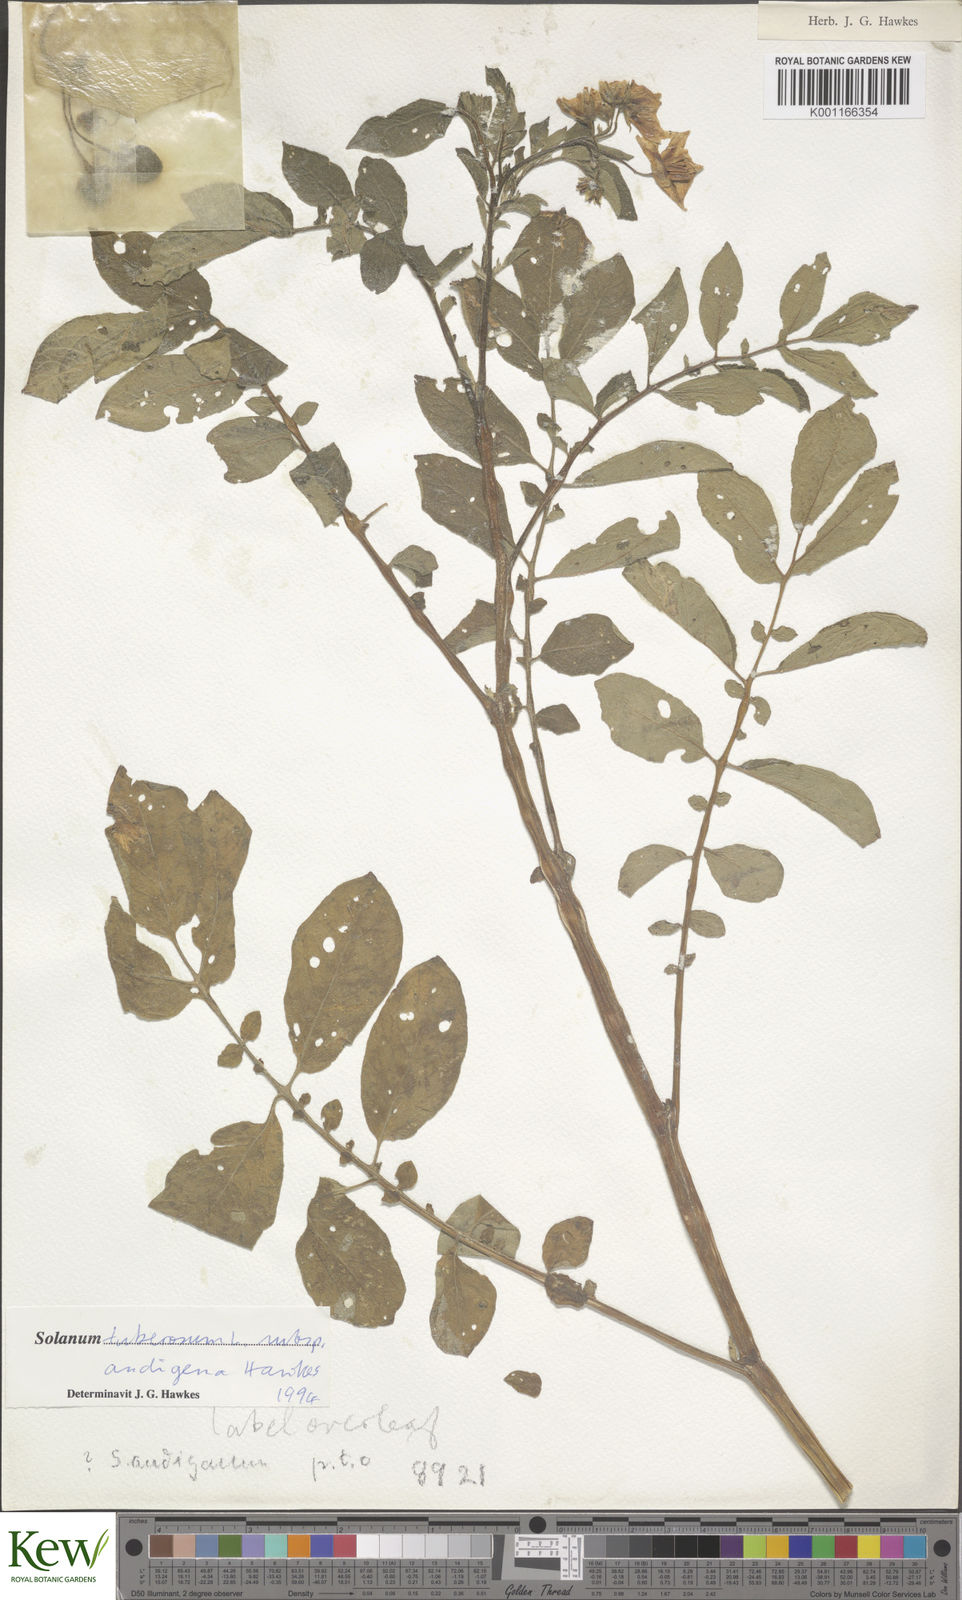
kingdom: Plantae
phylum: Tracheophyta
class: Magnoliopsida
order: Solanales
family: Solanaceae
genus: Solanum
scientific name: Solanum tuberosum
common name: Potato
